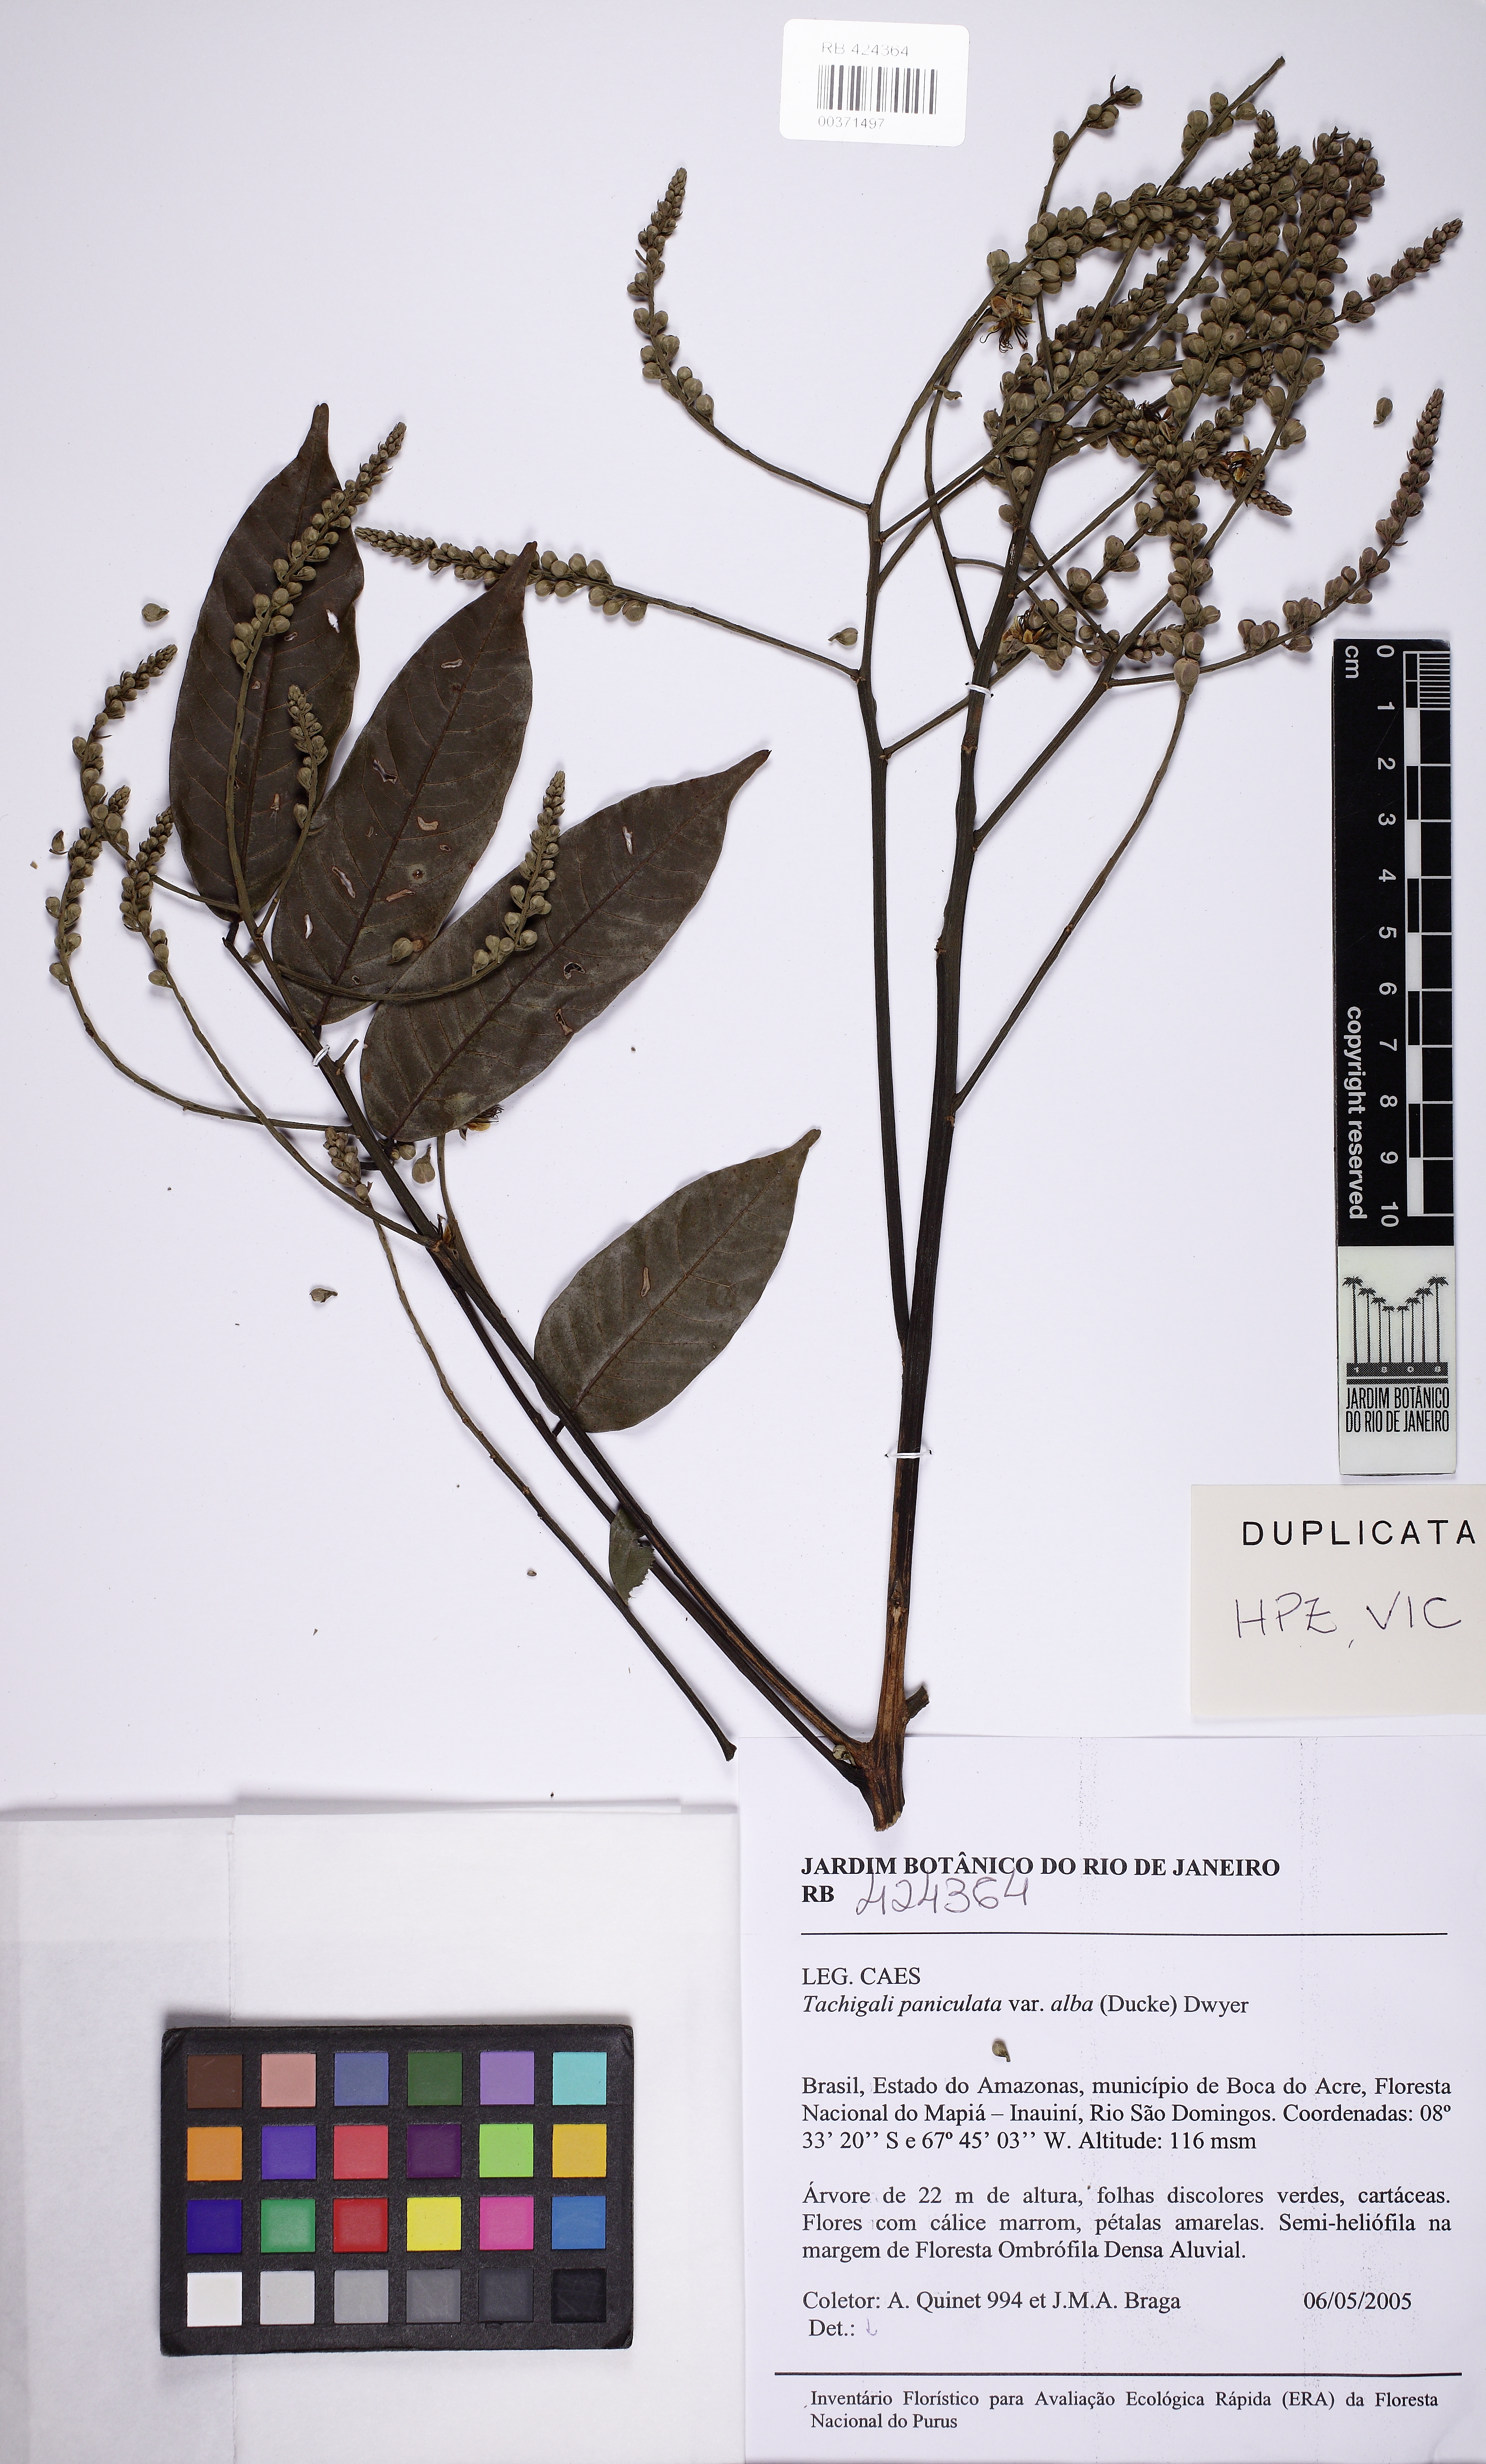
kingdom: Plantae
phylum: Tracheophyta
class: Magnoliopsida
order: Fabales
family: Fabaceae
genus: Tachigali
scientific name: Tachigali alba
